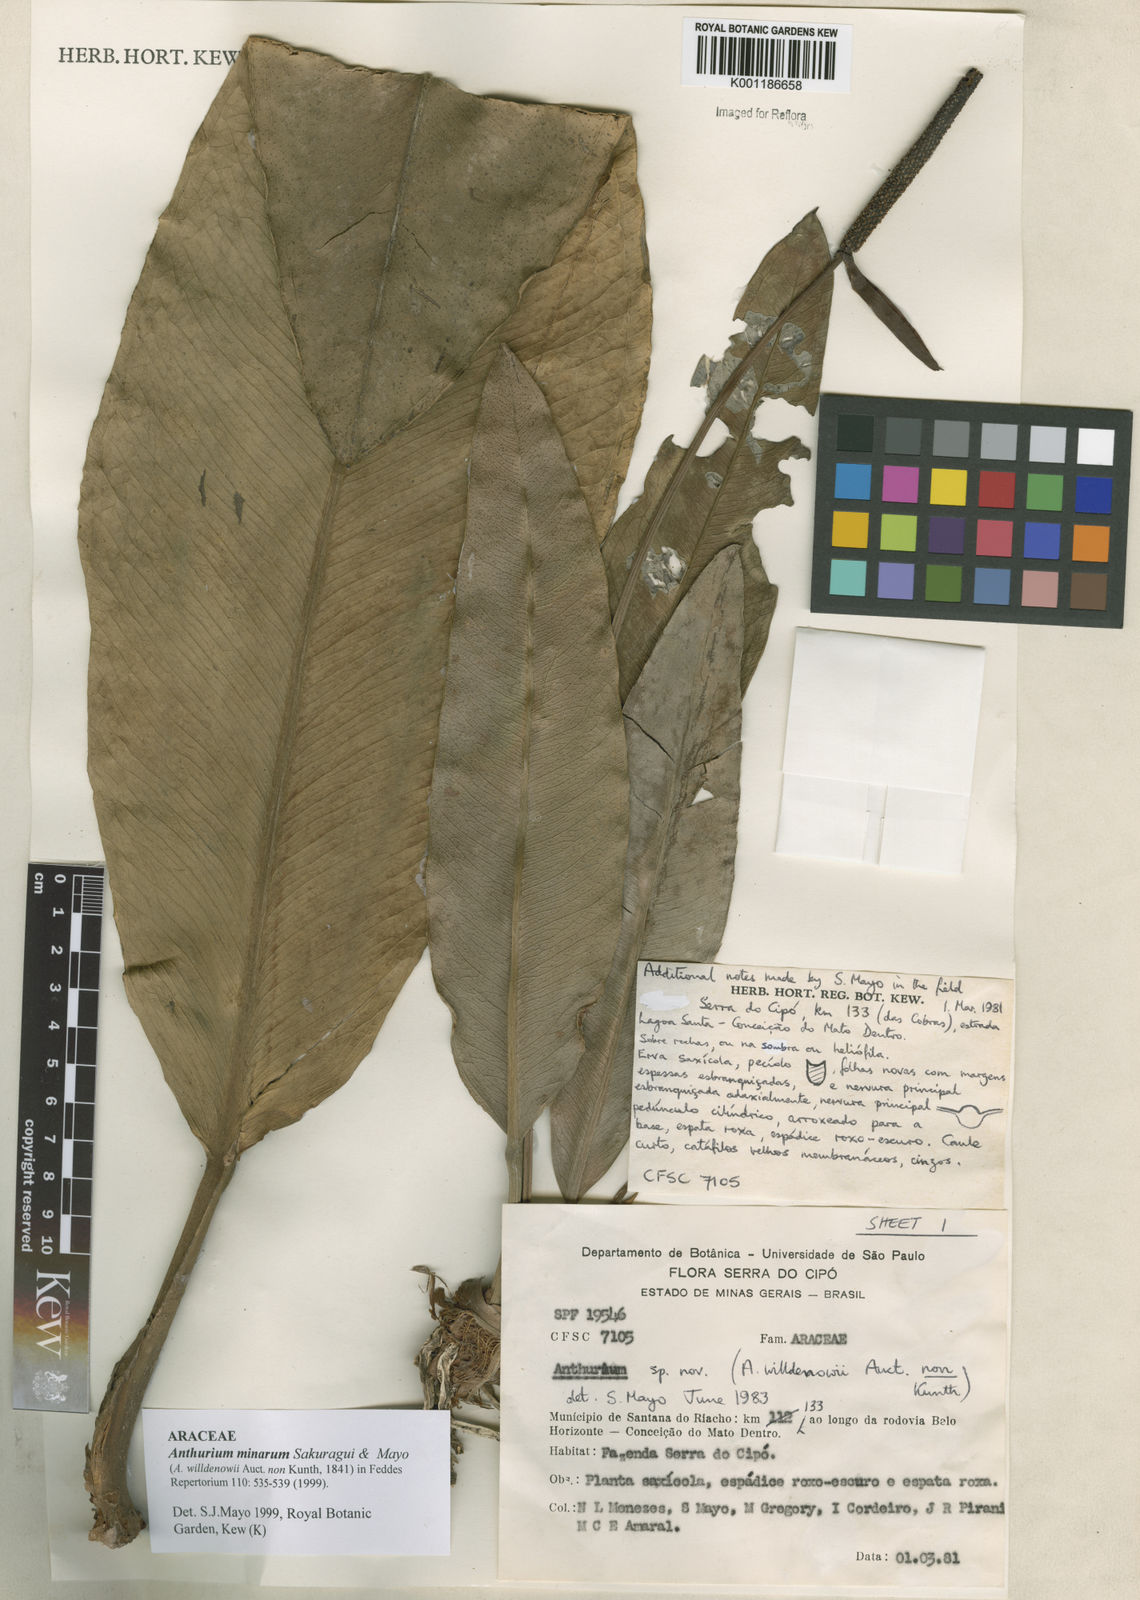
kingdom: Plantae
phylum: Tracheophyta
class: Liliopsida
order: Alismatales
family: Araceae
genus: Anthurium
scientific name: Anthurium minarum
